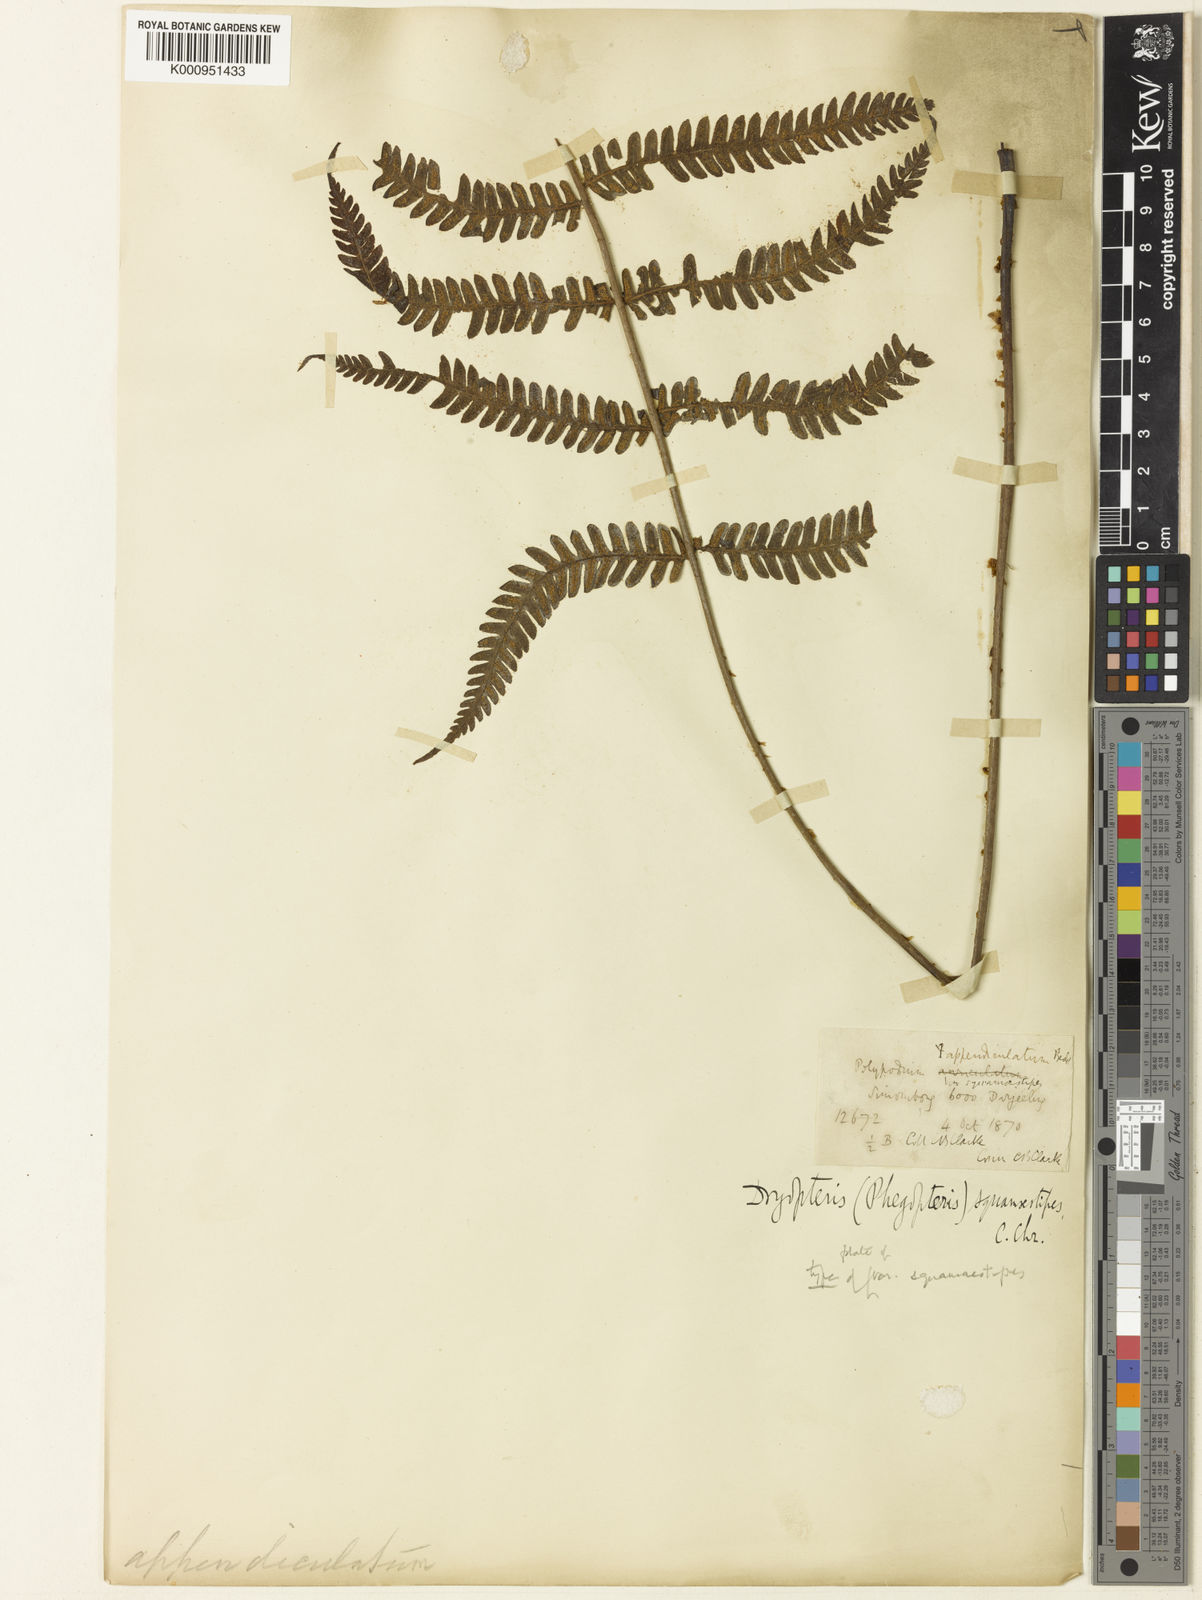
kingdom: Plantae
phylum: Tracheophyta
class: Polypodiopsida
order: Polypodiales
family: Thelypteridaceae
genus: Cyclogramma
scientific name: Cyclogramma
